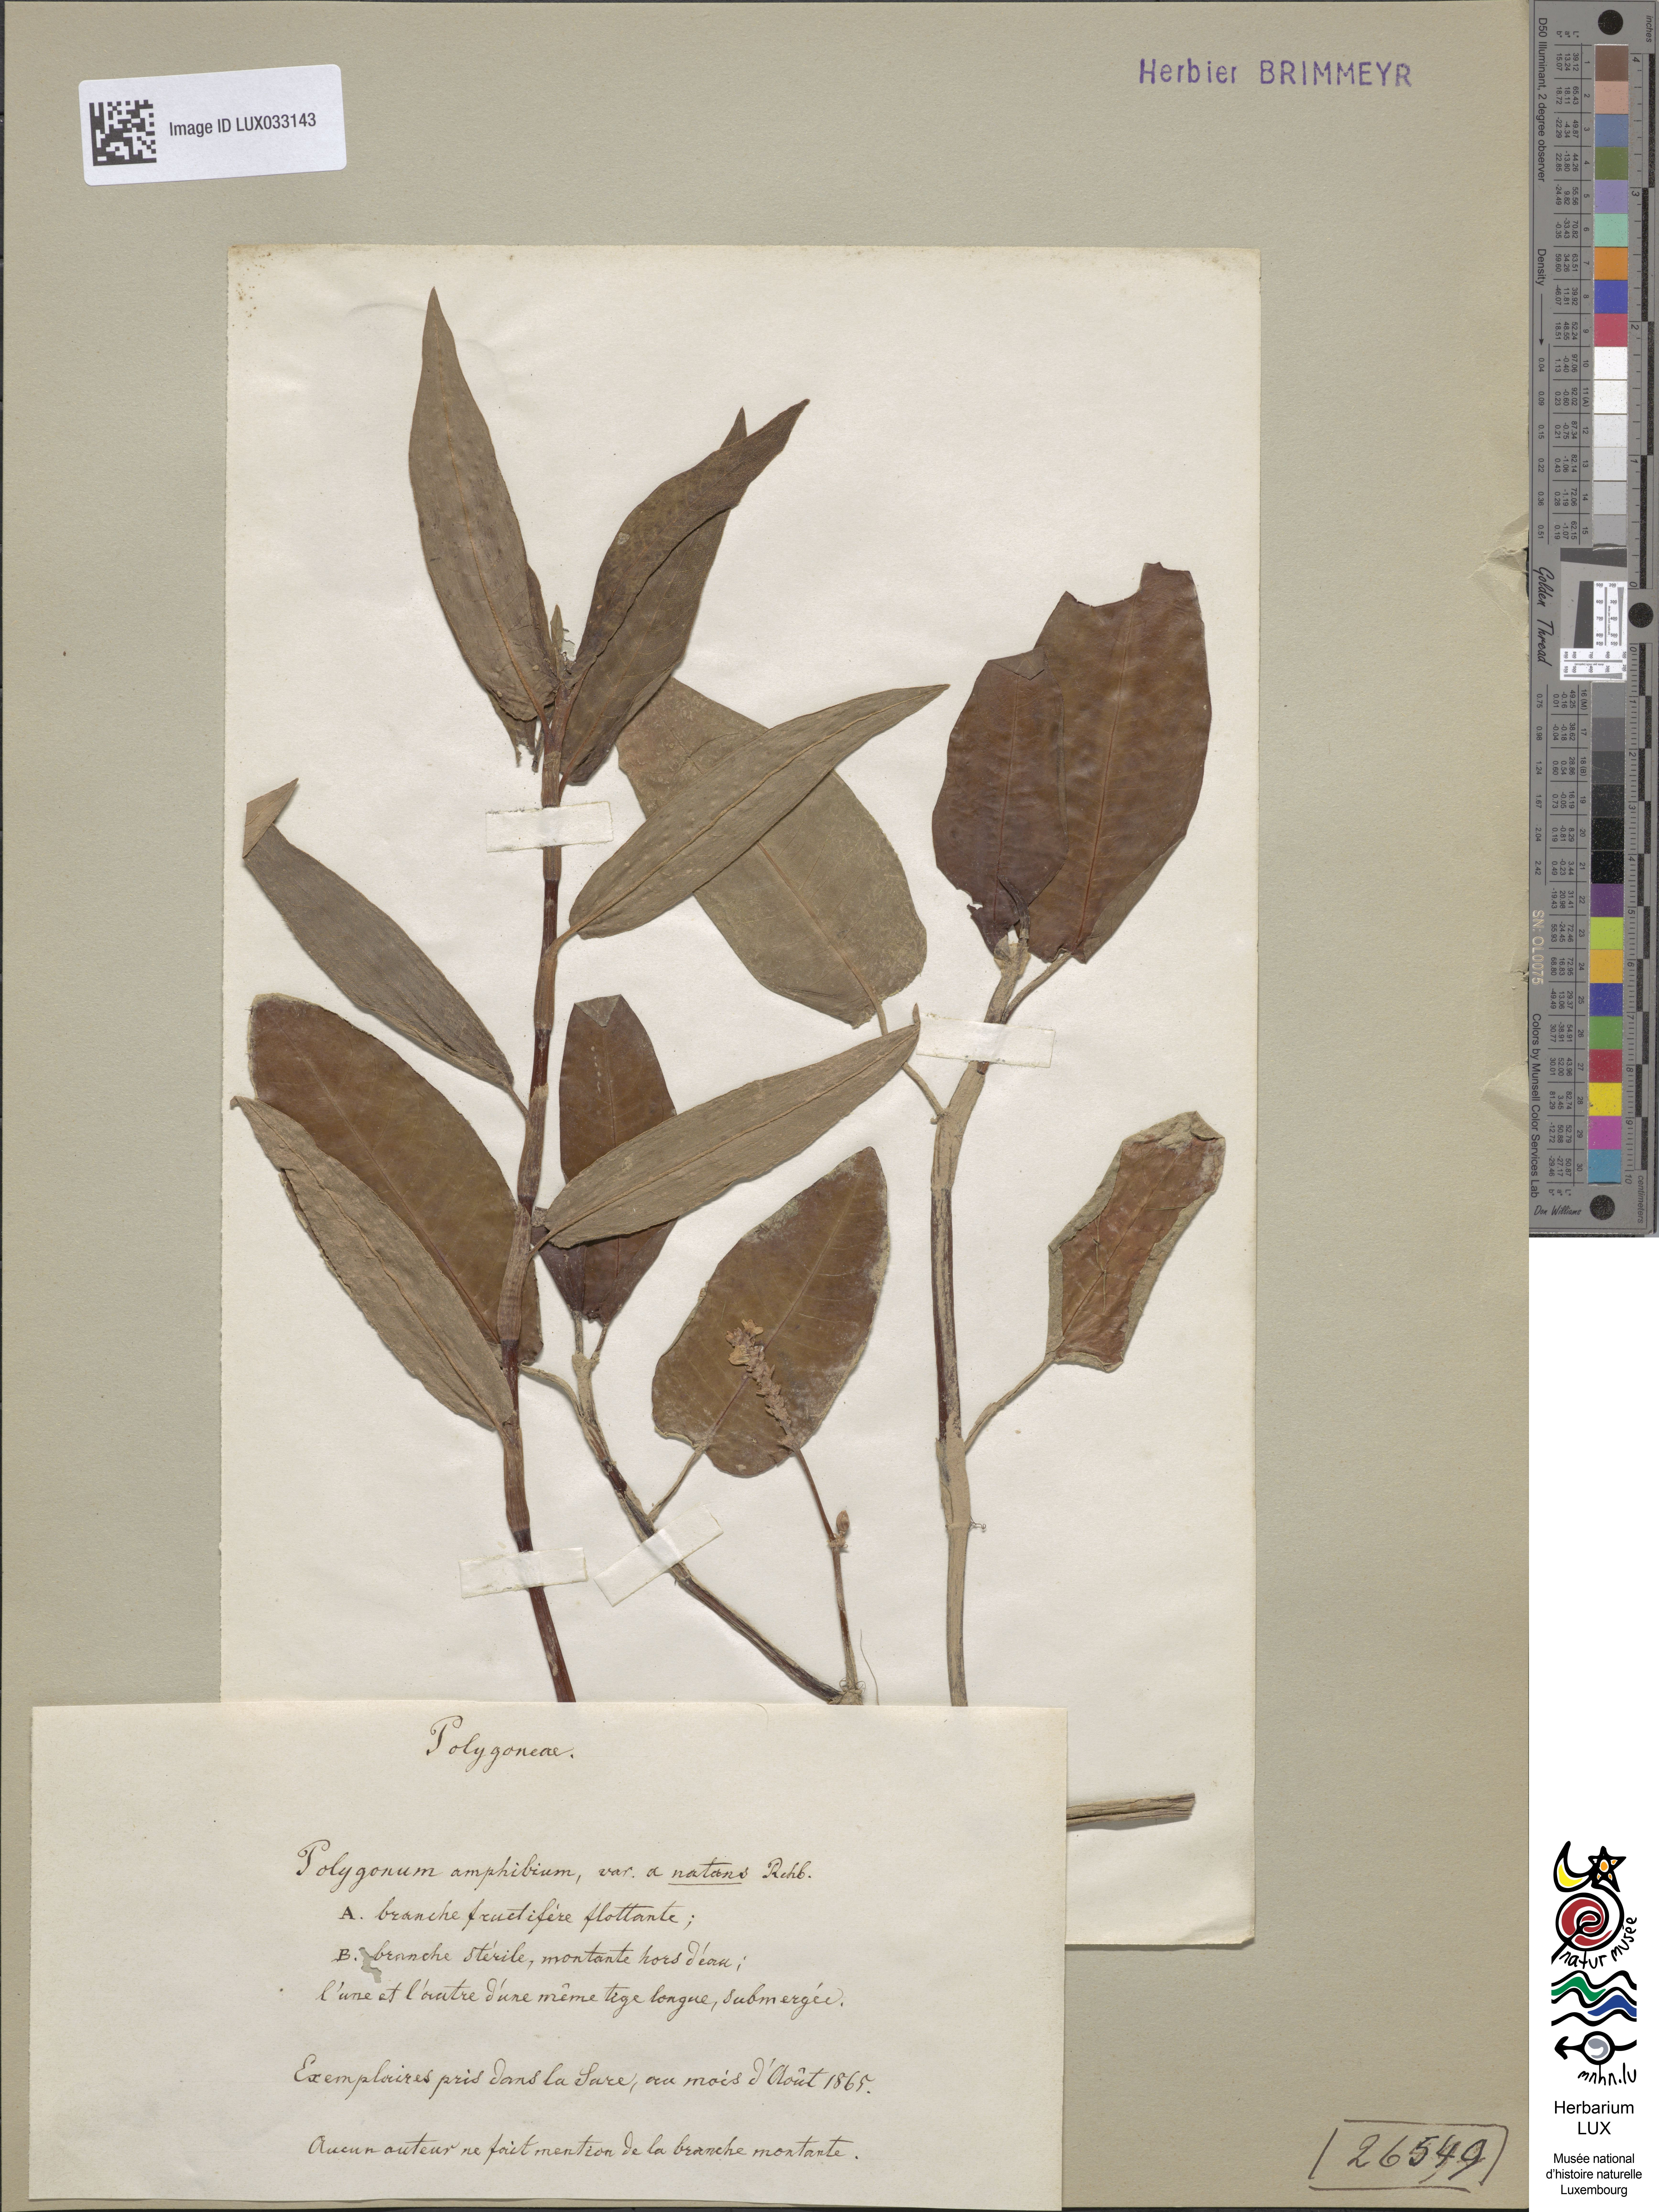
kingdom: Plantae
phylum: Tracheophyta
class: Magnoliopsida
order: Caryophyllales
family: Polygonaceae
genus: Persicaria
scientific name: Persicaria amphibia
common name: Amphibious bistort
